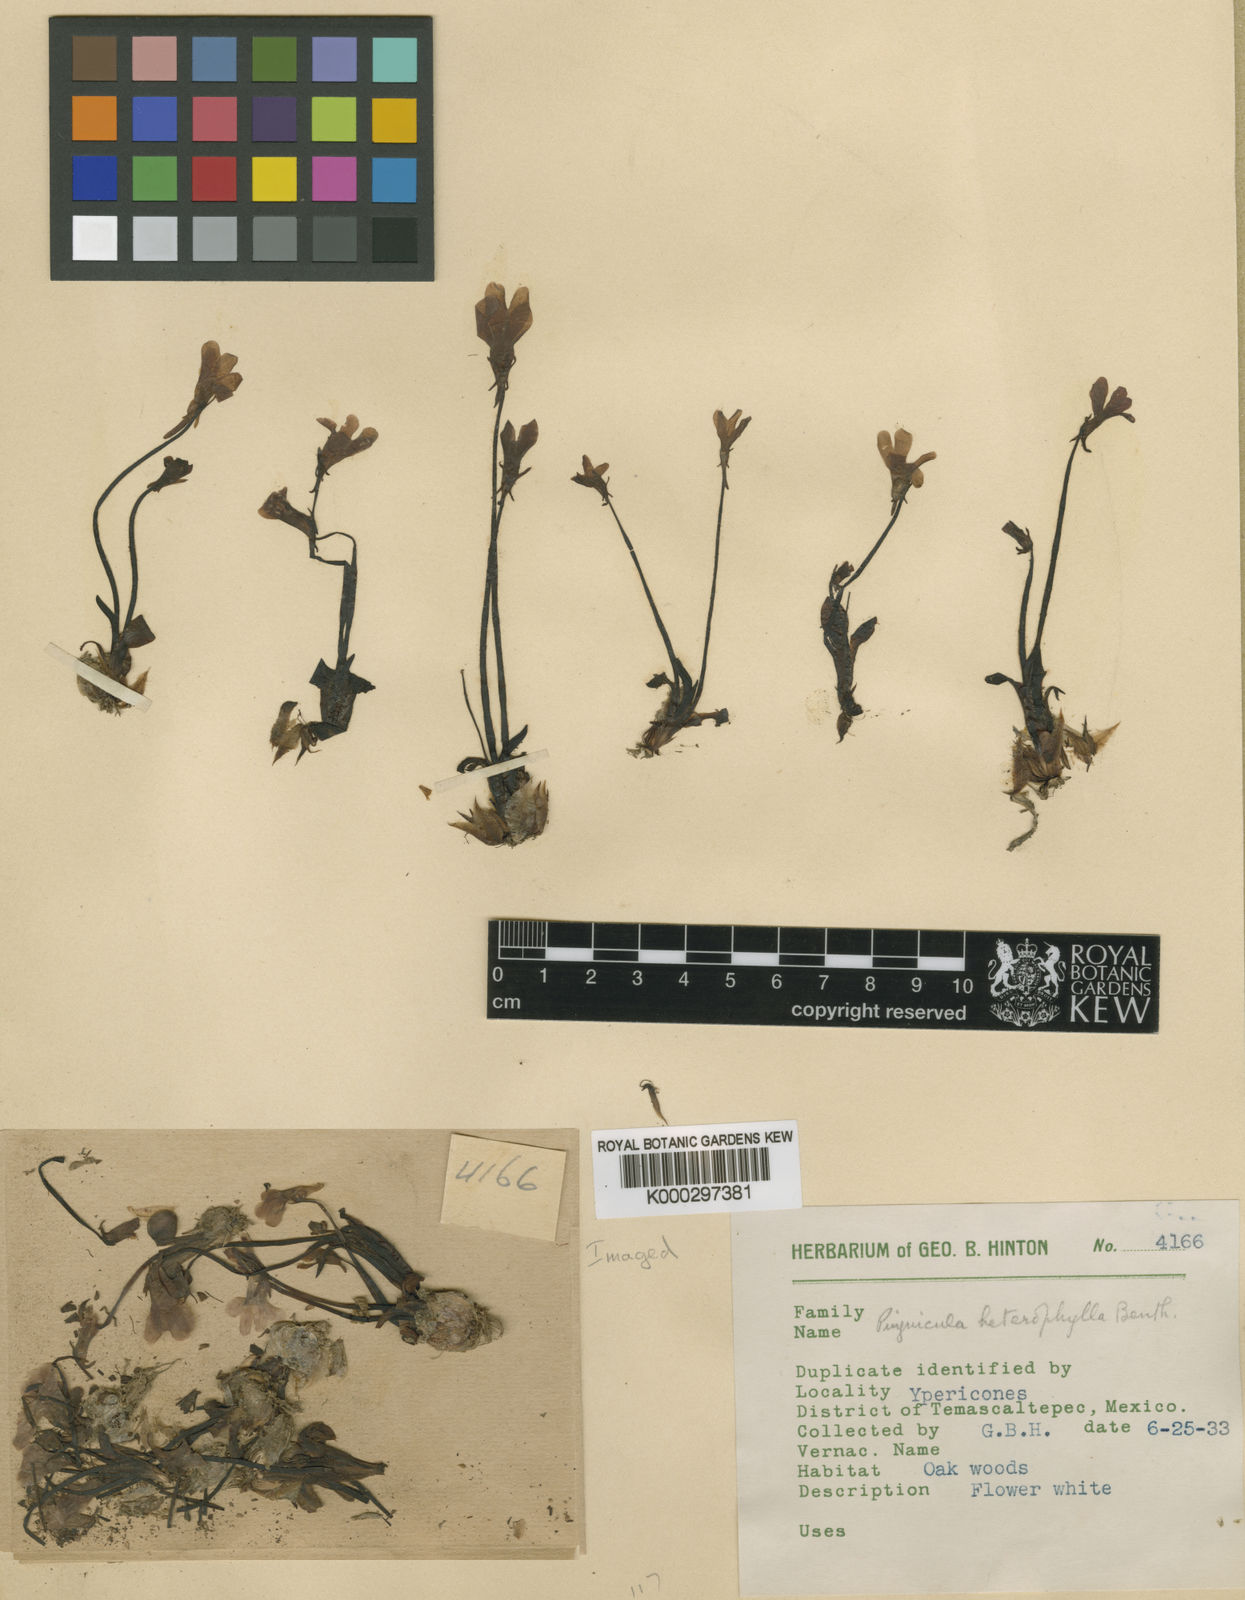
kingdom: Plantae
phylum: Tracheophyta
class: Magnoliopsida
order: Lamiales
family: Lentibulariaceae
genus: Pinguicula
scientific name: Pinguicula heterophylla
